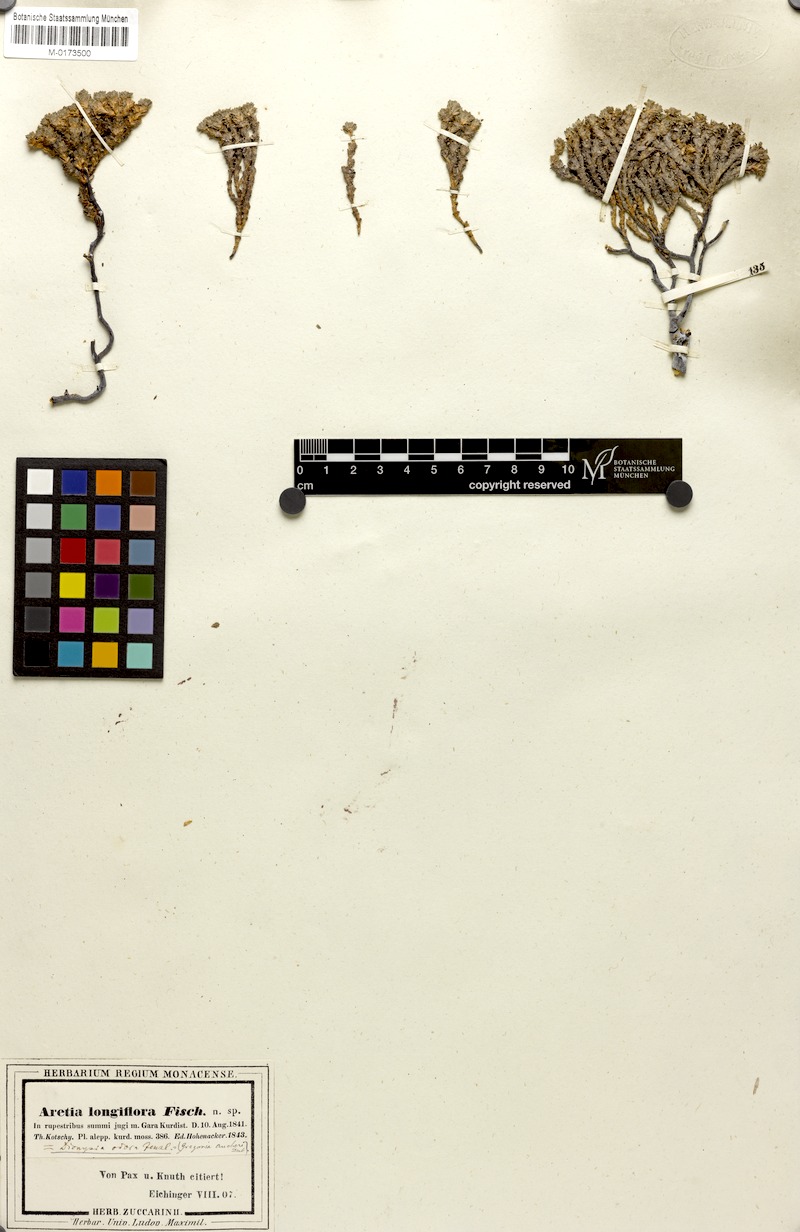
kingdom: Plantae
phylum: Tracheophyta
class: Magnoliopsida
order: Ericales
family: Primulaceae
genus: Dionysia
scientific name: Dionysia odora
